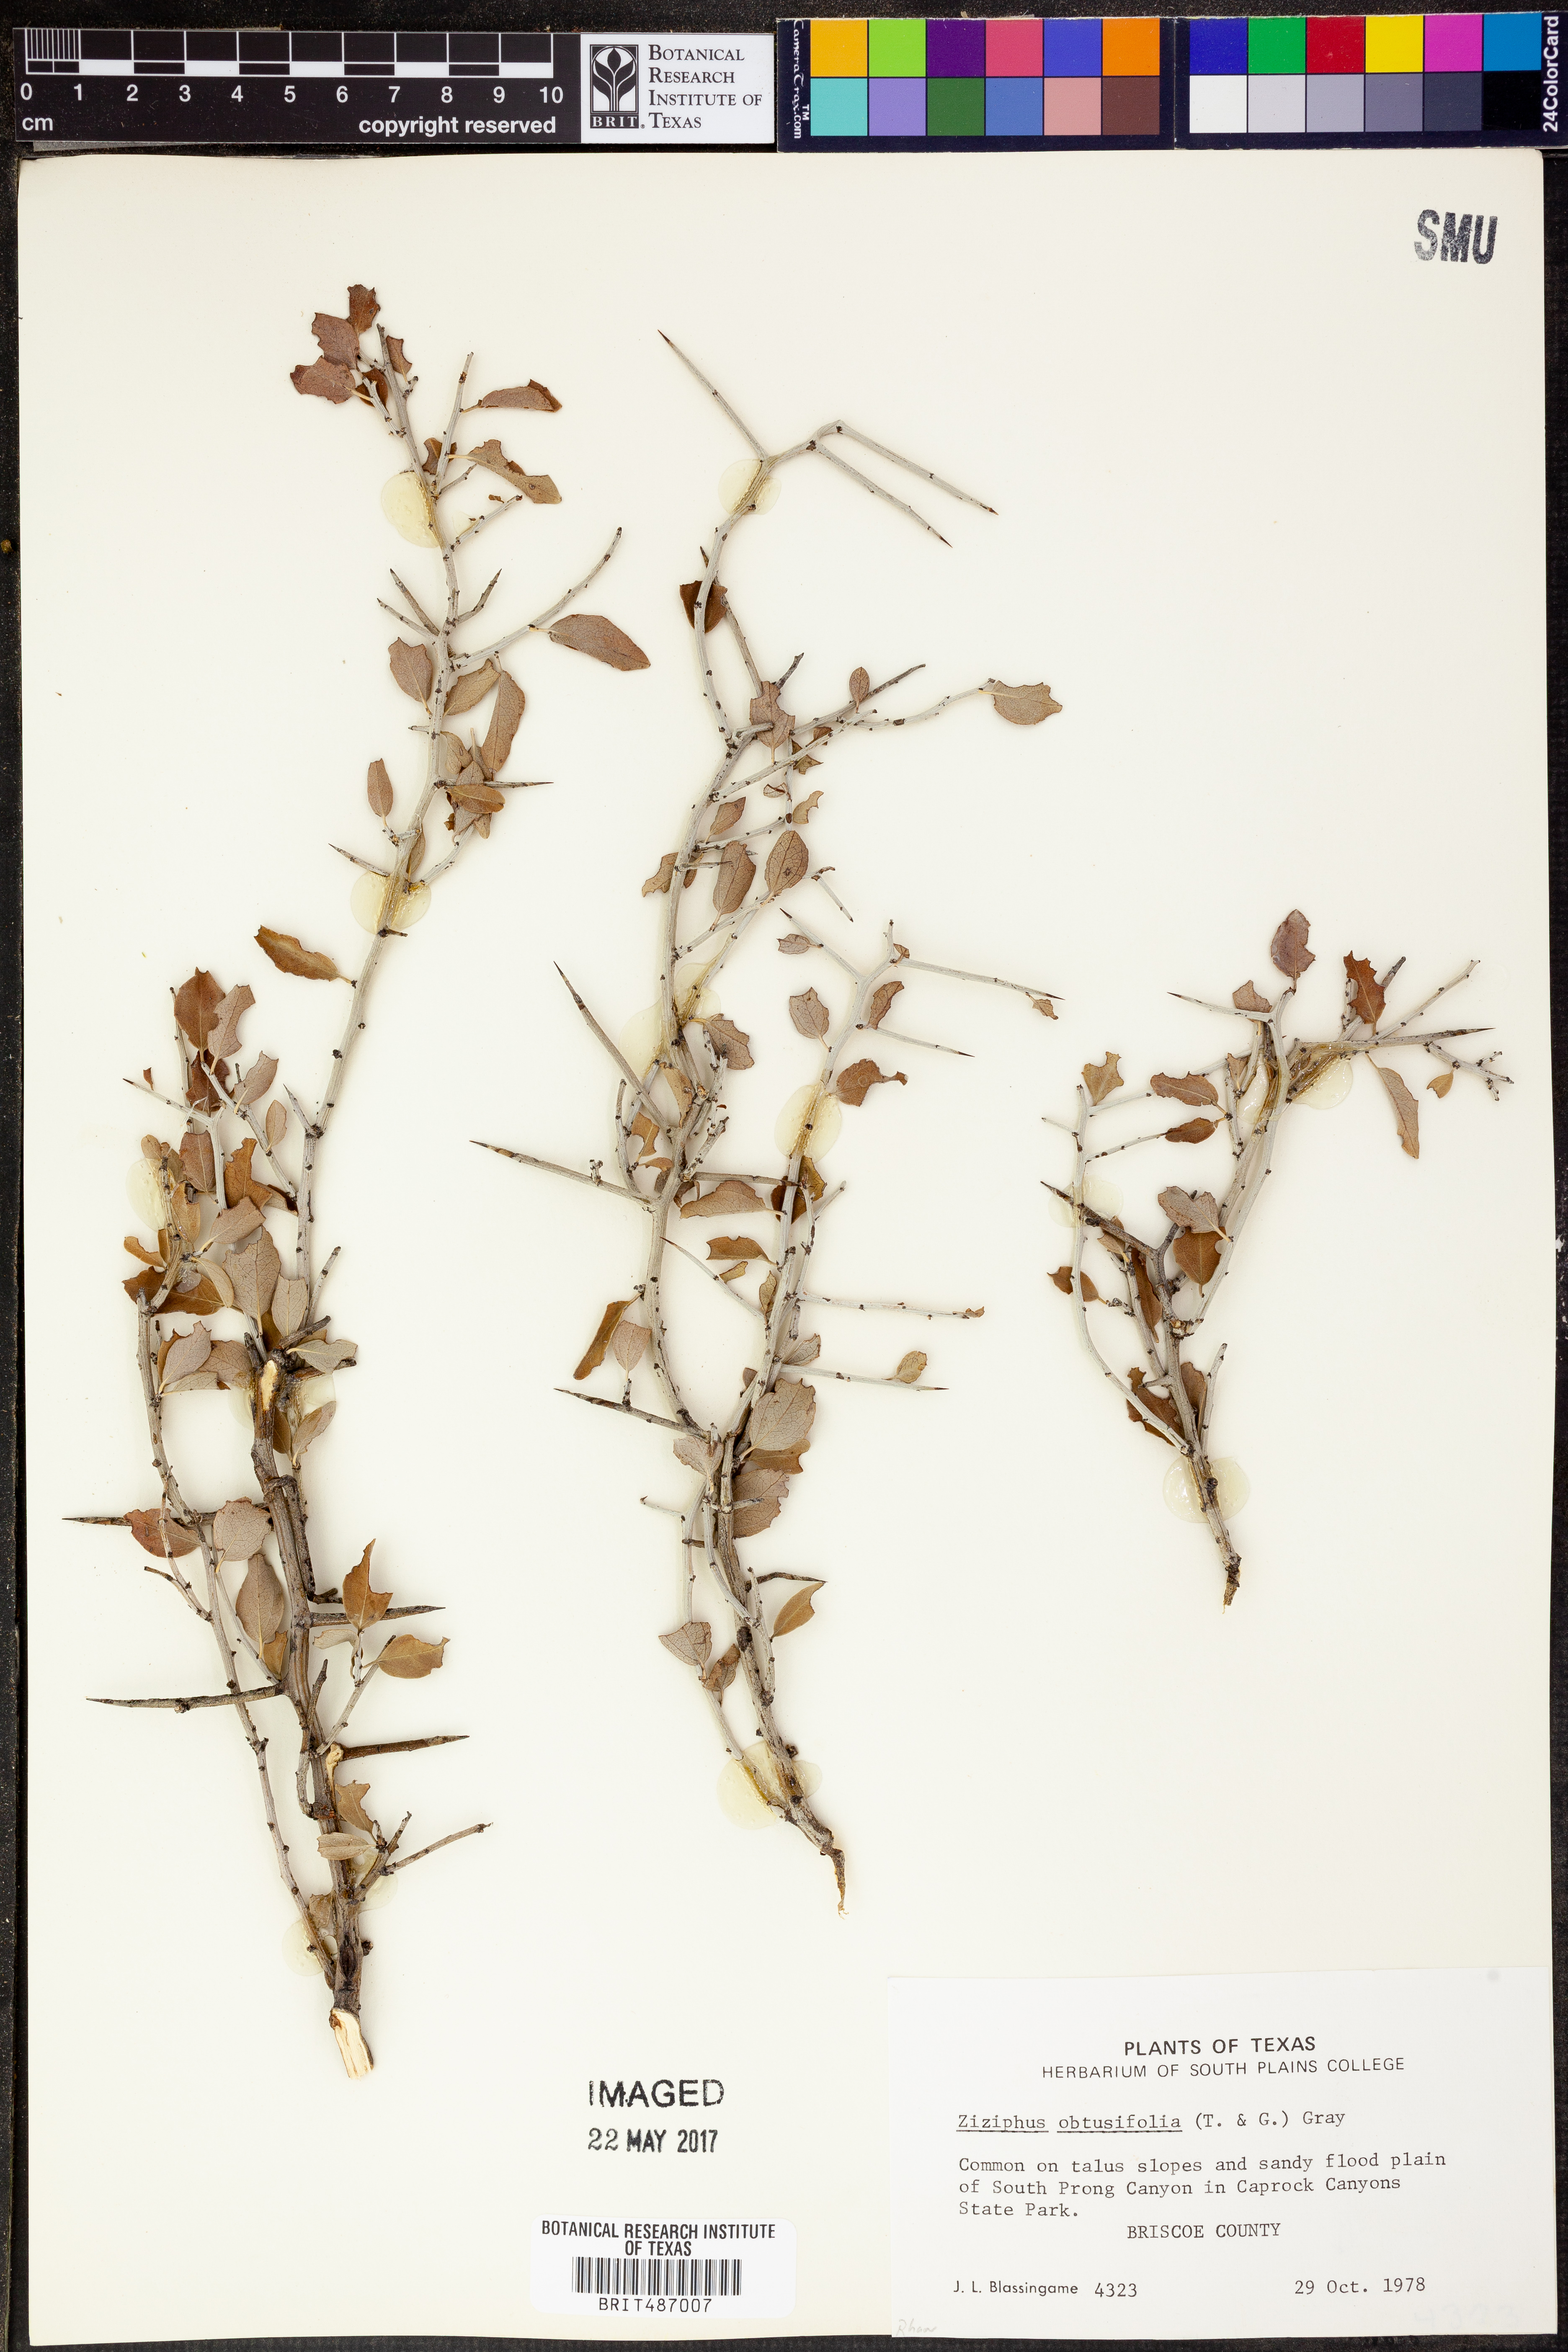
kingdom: Plantae
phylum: Tracheophyta
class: Magnoliopsida
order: Rosales
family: Rhamnaceae
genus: Sarcomphalus
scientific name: Sarcomphalus obtusifolius
